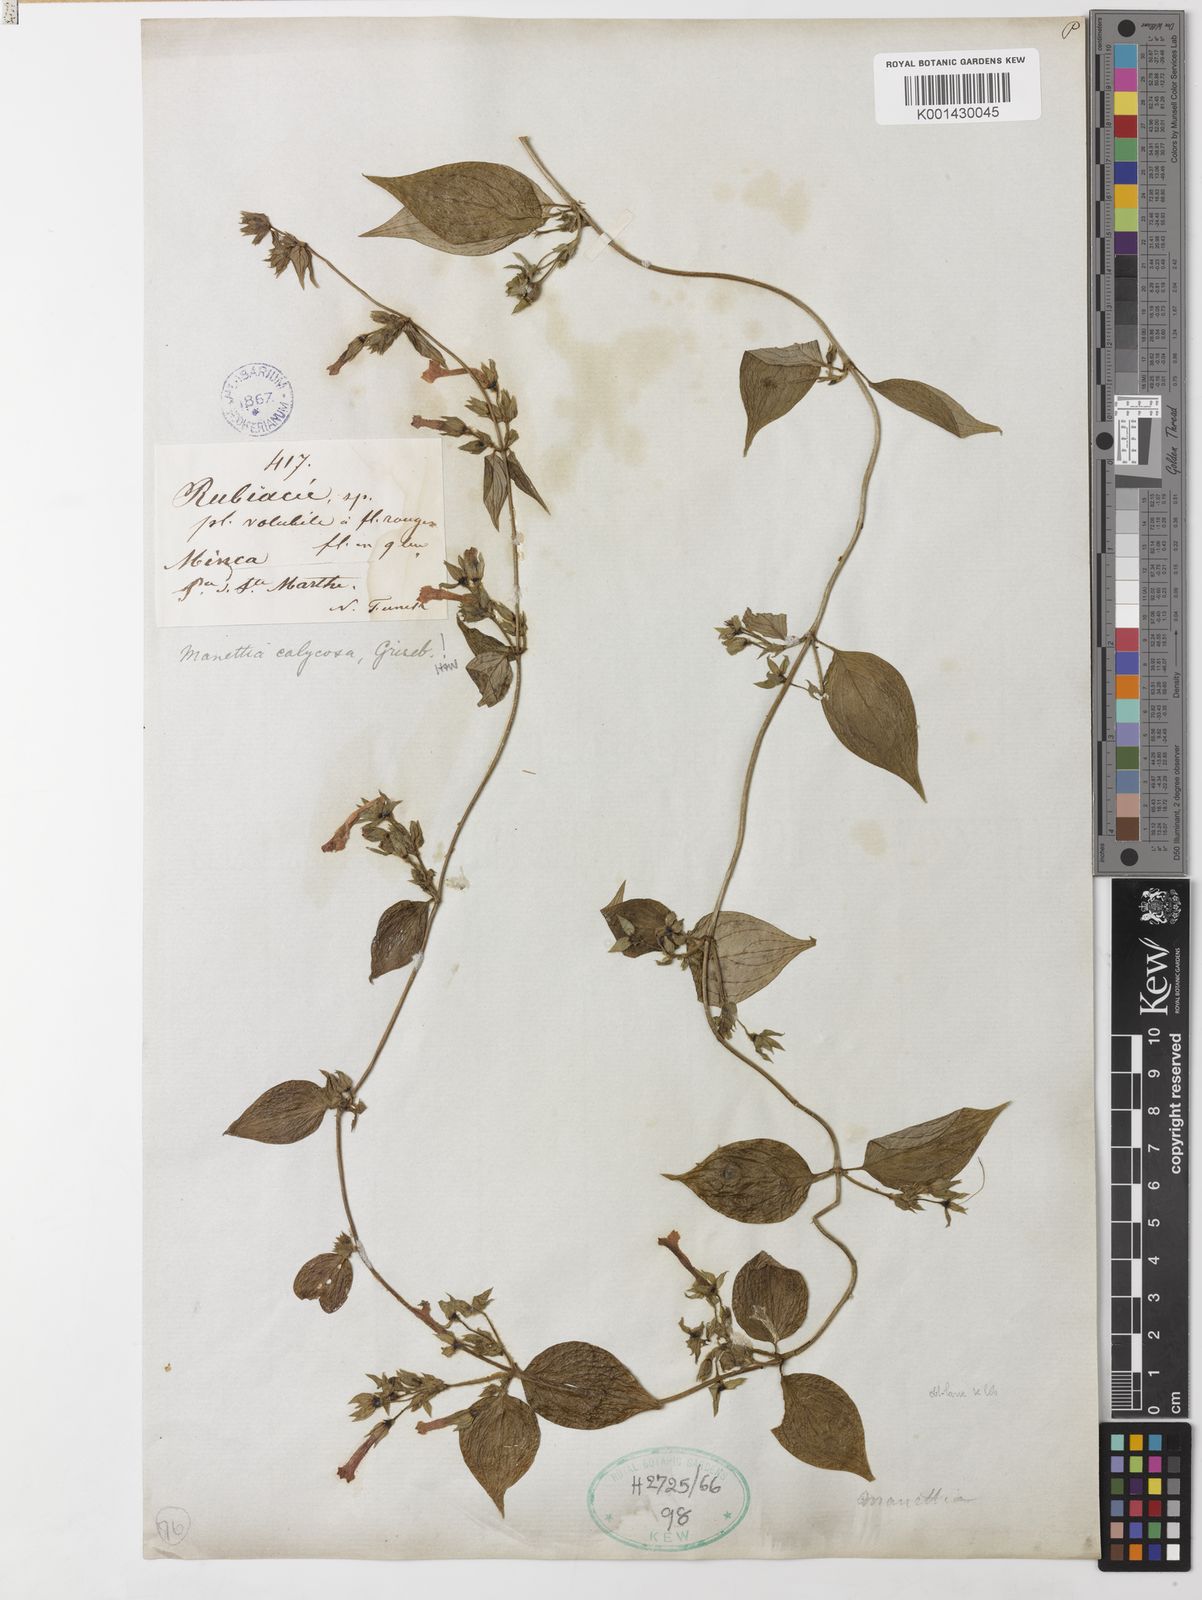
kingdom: Plantae
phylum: Tracheophyta
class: Magnoliopsida
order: Gentianales
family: Rubiaceae
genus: Manettia
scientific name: Manettia calycosa
